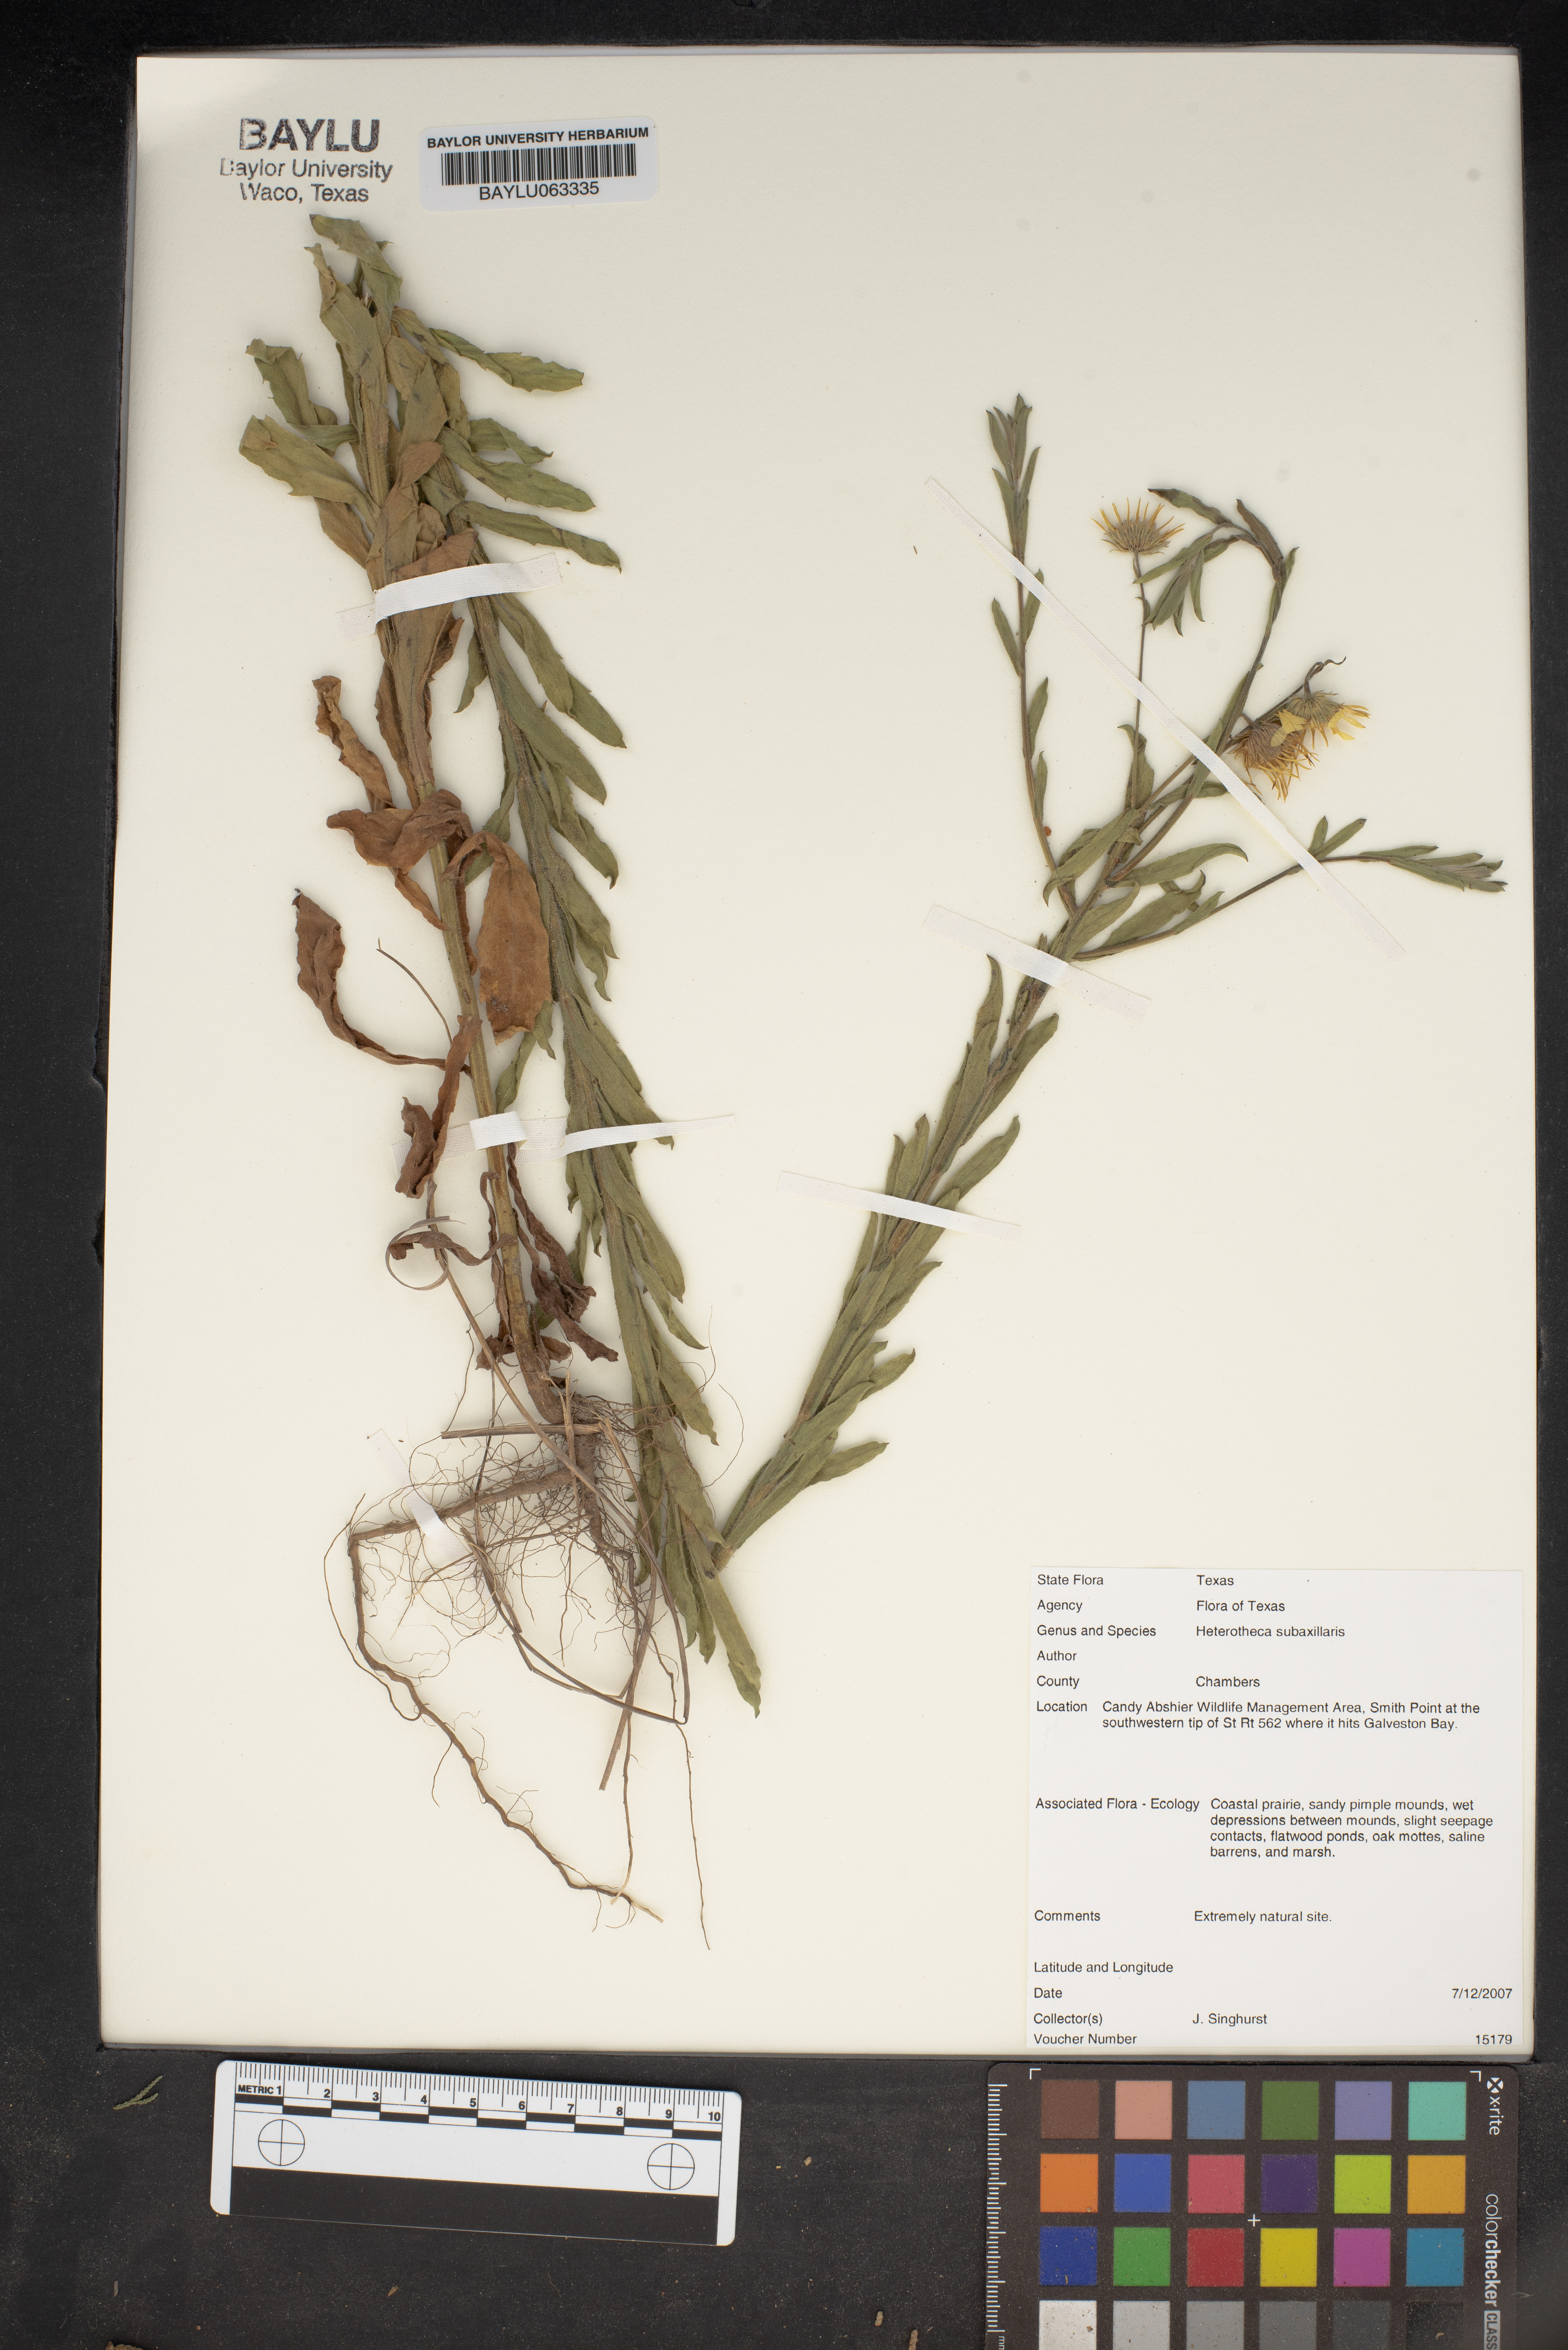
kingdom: Plantae
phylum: Tracheophyta
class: Magnoliopsida
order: Asterales
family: Asteraceae
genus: Heterotheca
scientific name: Heterotheca subaxillaris
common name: Camphorweed
